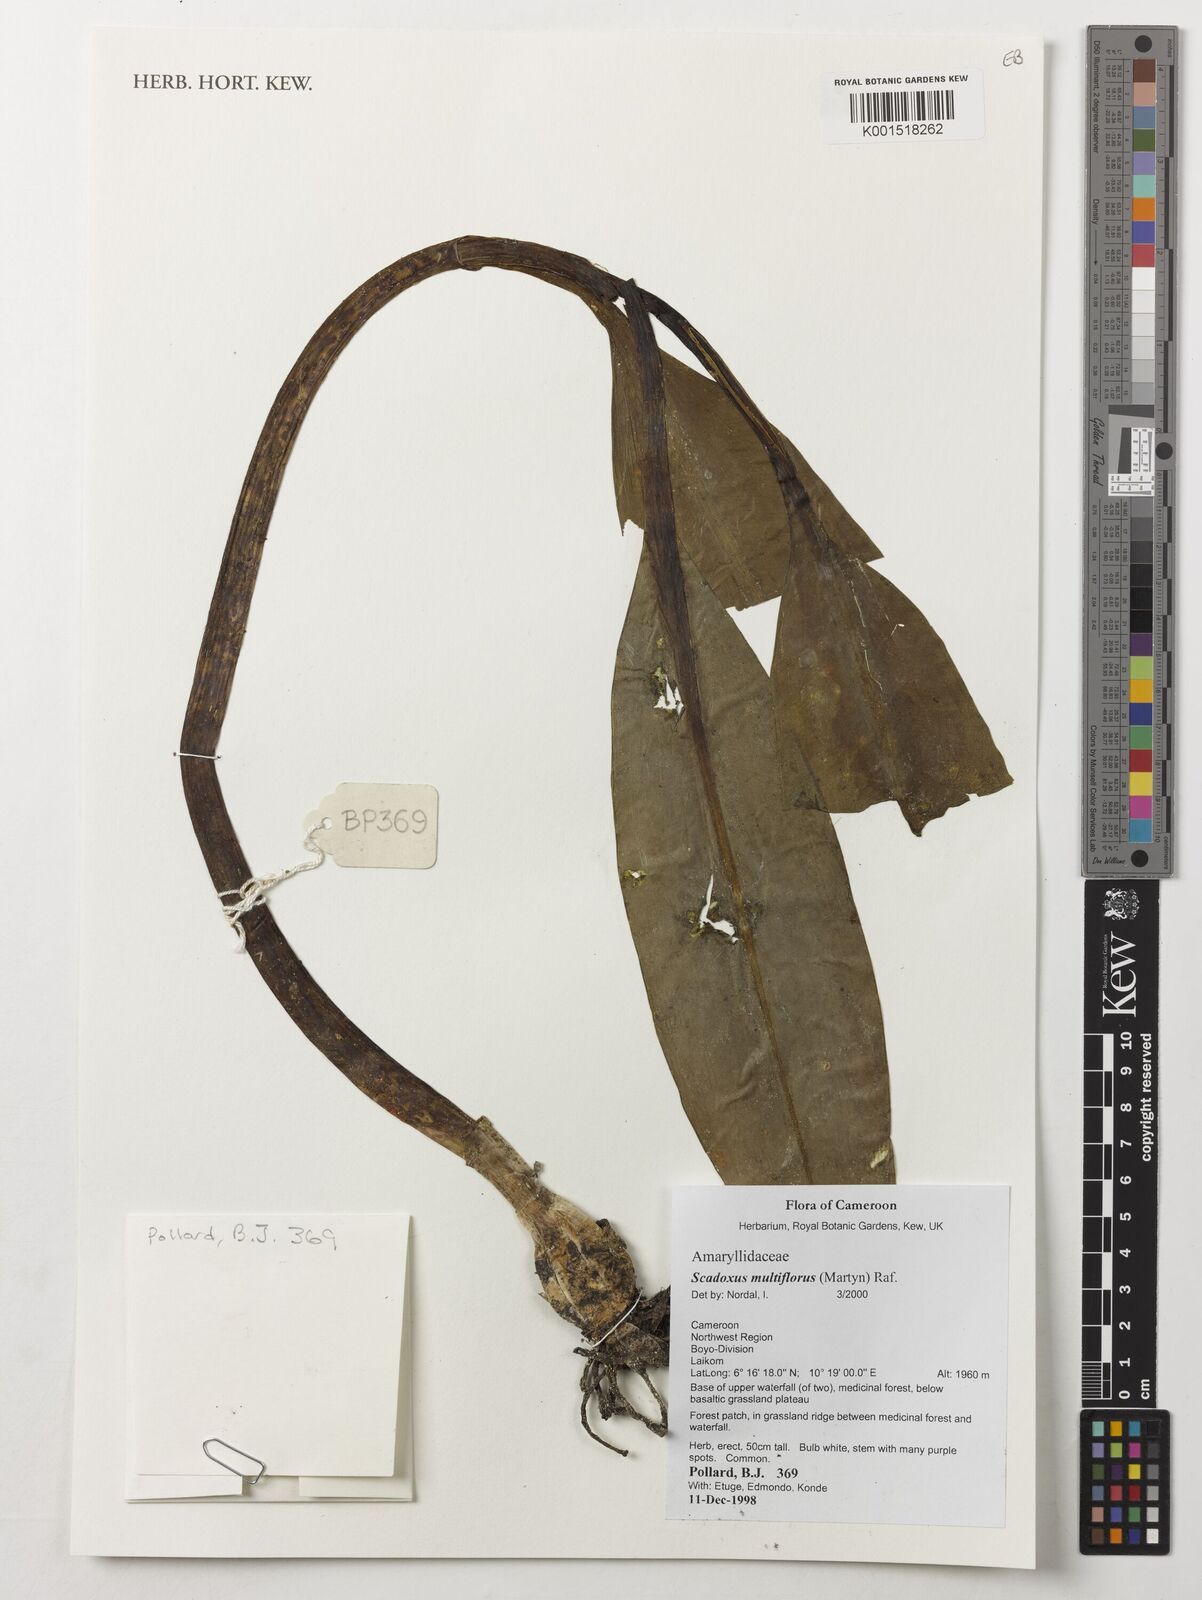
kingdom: Plantae
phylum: Tracheophyta
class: Liliopsida
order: Asparagales
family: Amaryllidaceae
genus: Scadoxus
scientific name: Scadoxus multiflorus
